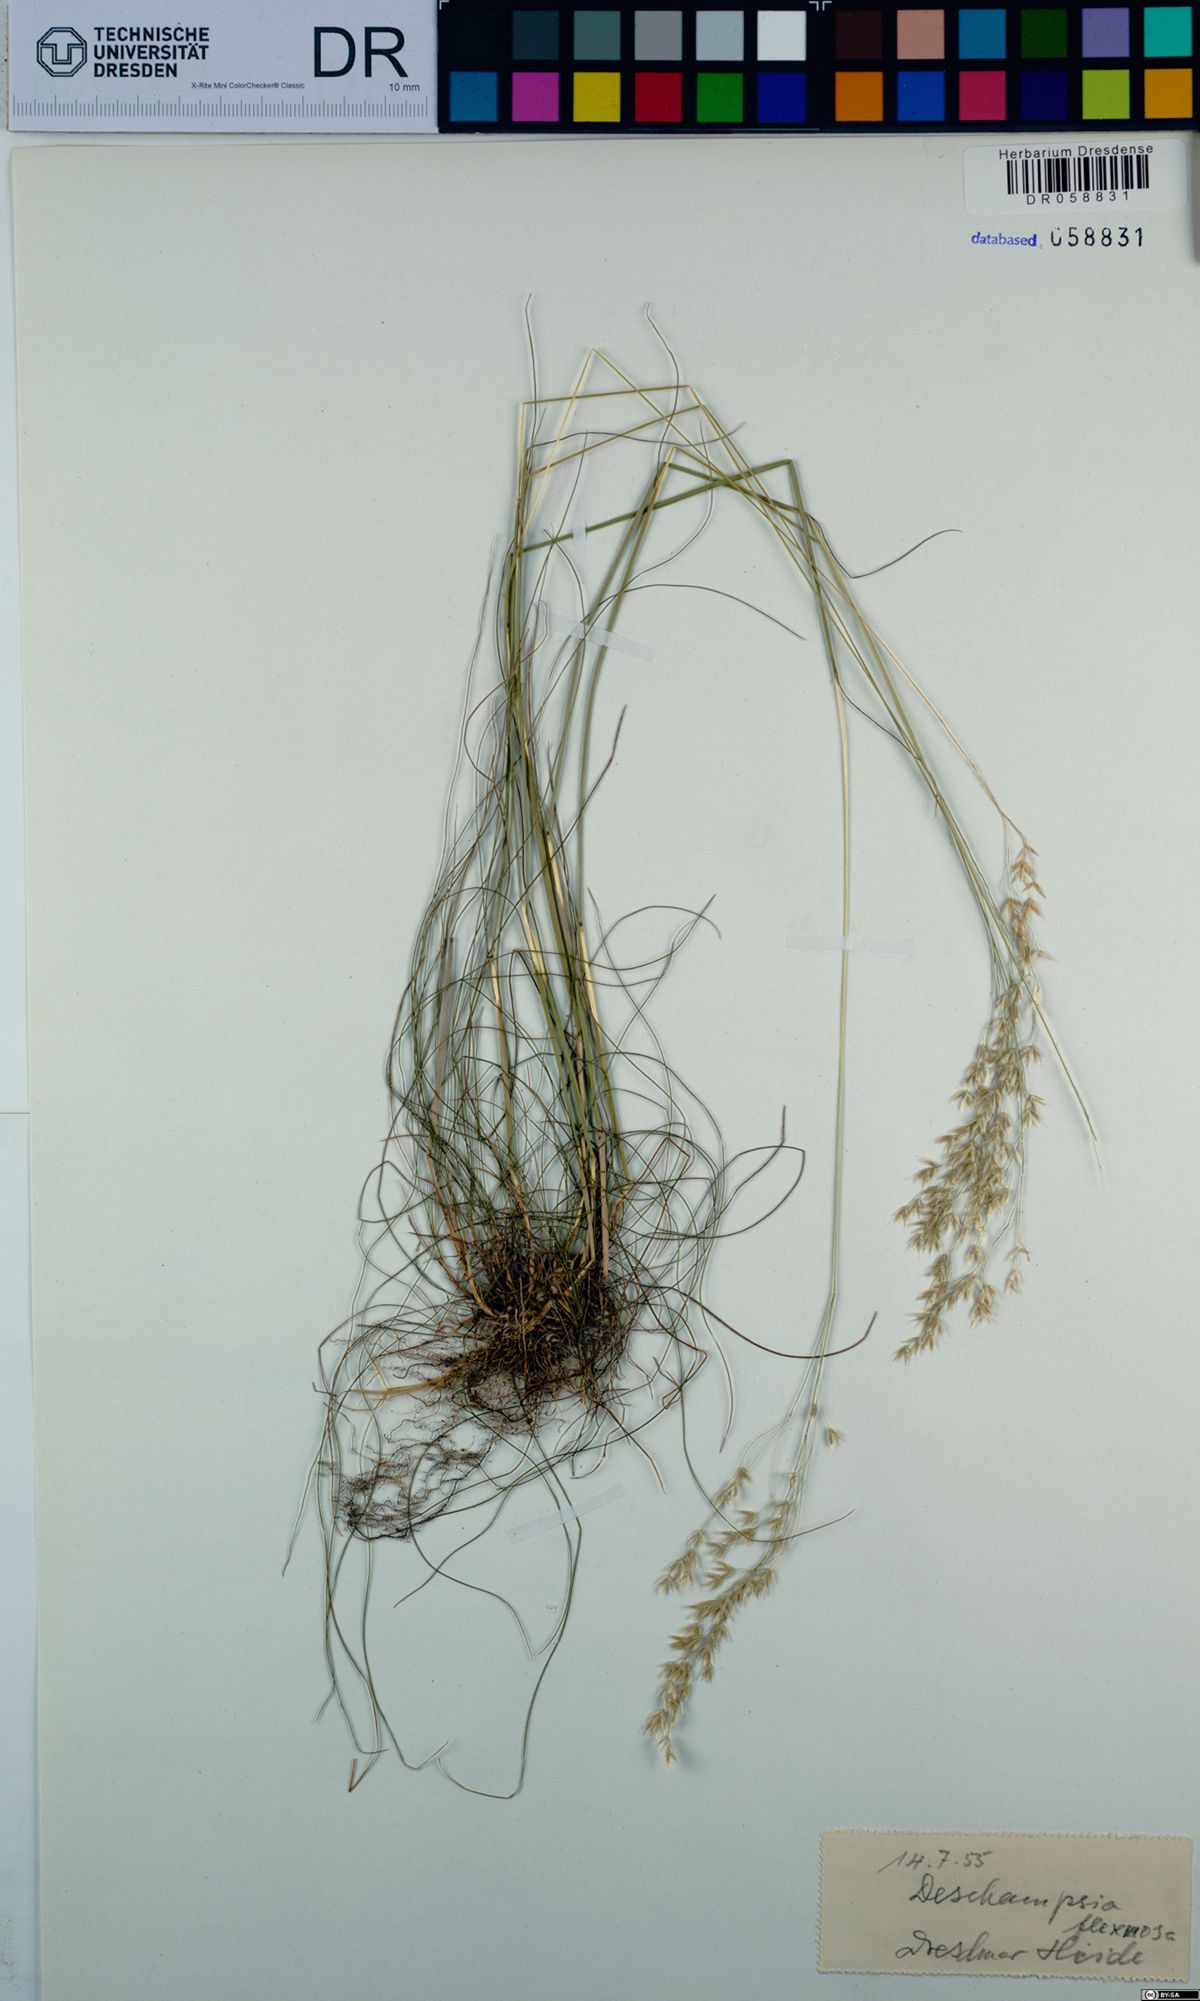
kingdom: Plantae
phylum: Tracheophyta
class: Liliopsida
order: Poales
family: Poaceae
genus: Avenella
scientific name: Avenella flexuosa
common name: Wavy hairgrass
